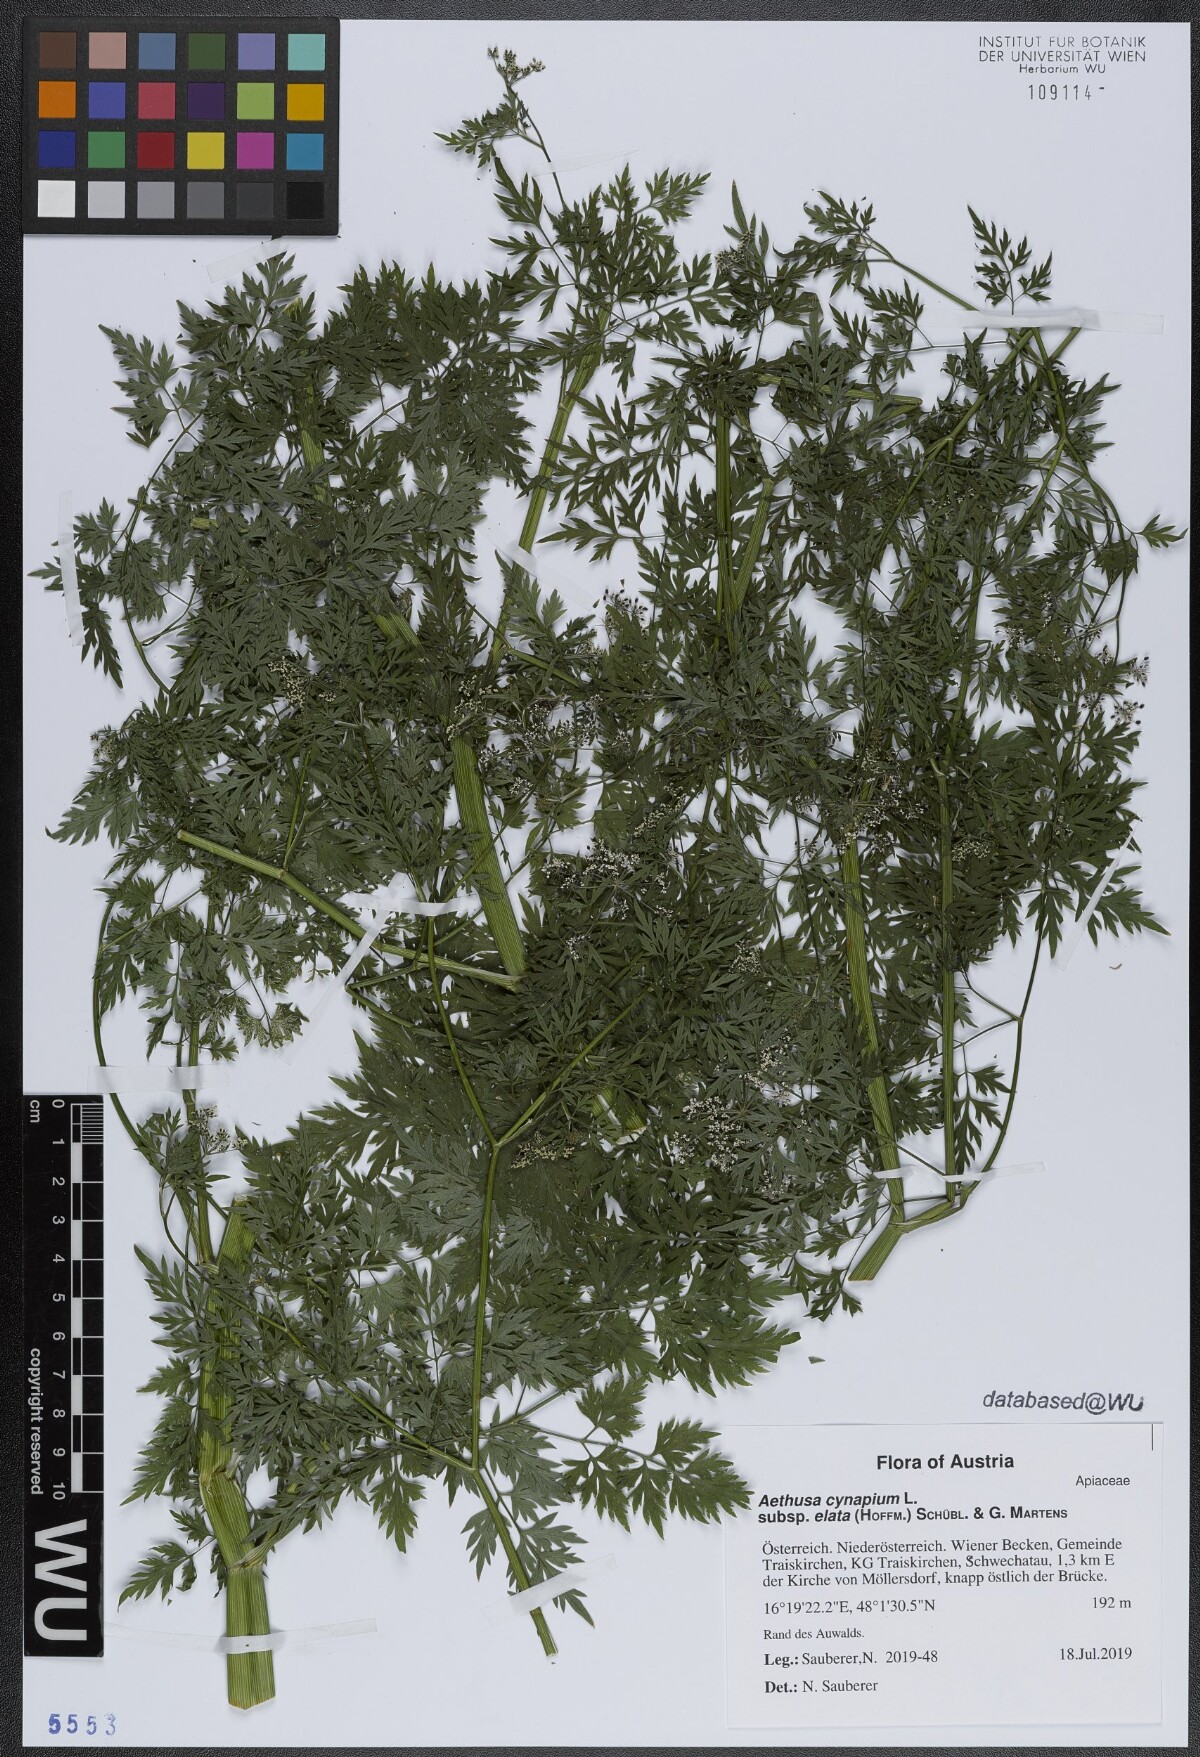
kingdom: Plantae
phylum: Tracheophyta
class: Magnoliopsida
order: Apiales
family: Apiaceae
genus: Aethusa
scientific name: Aethusa cynapium
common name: Fool's parsley
